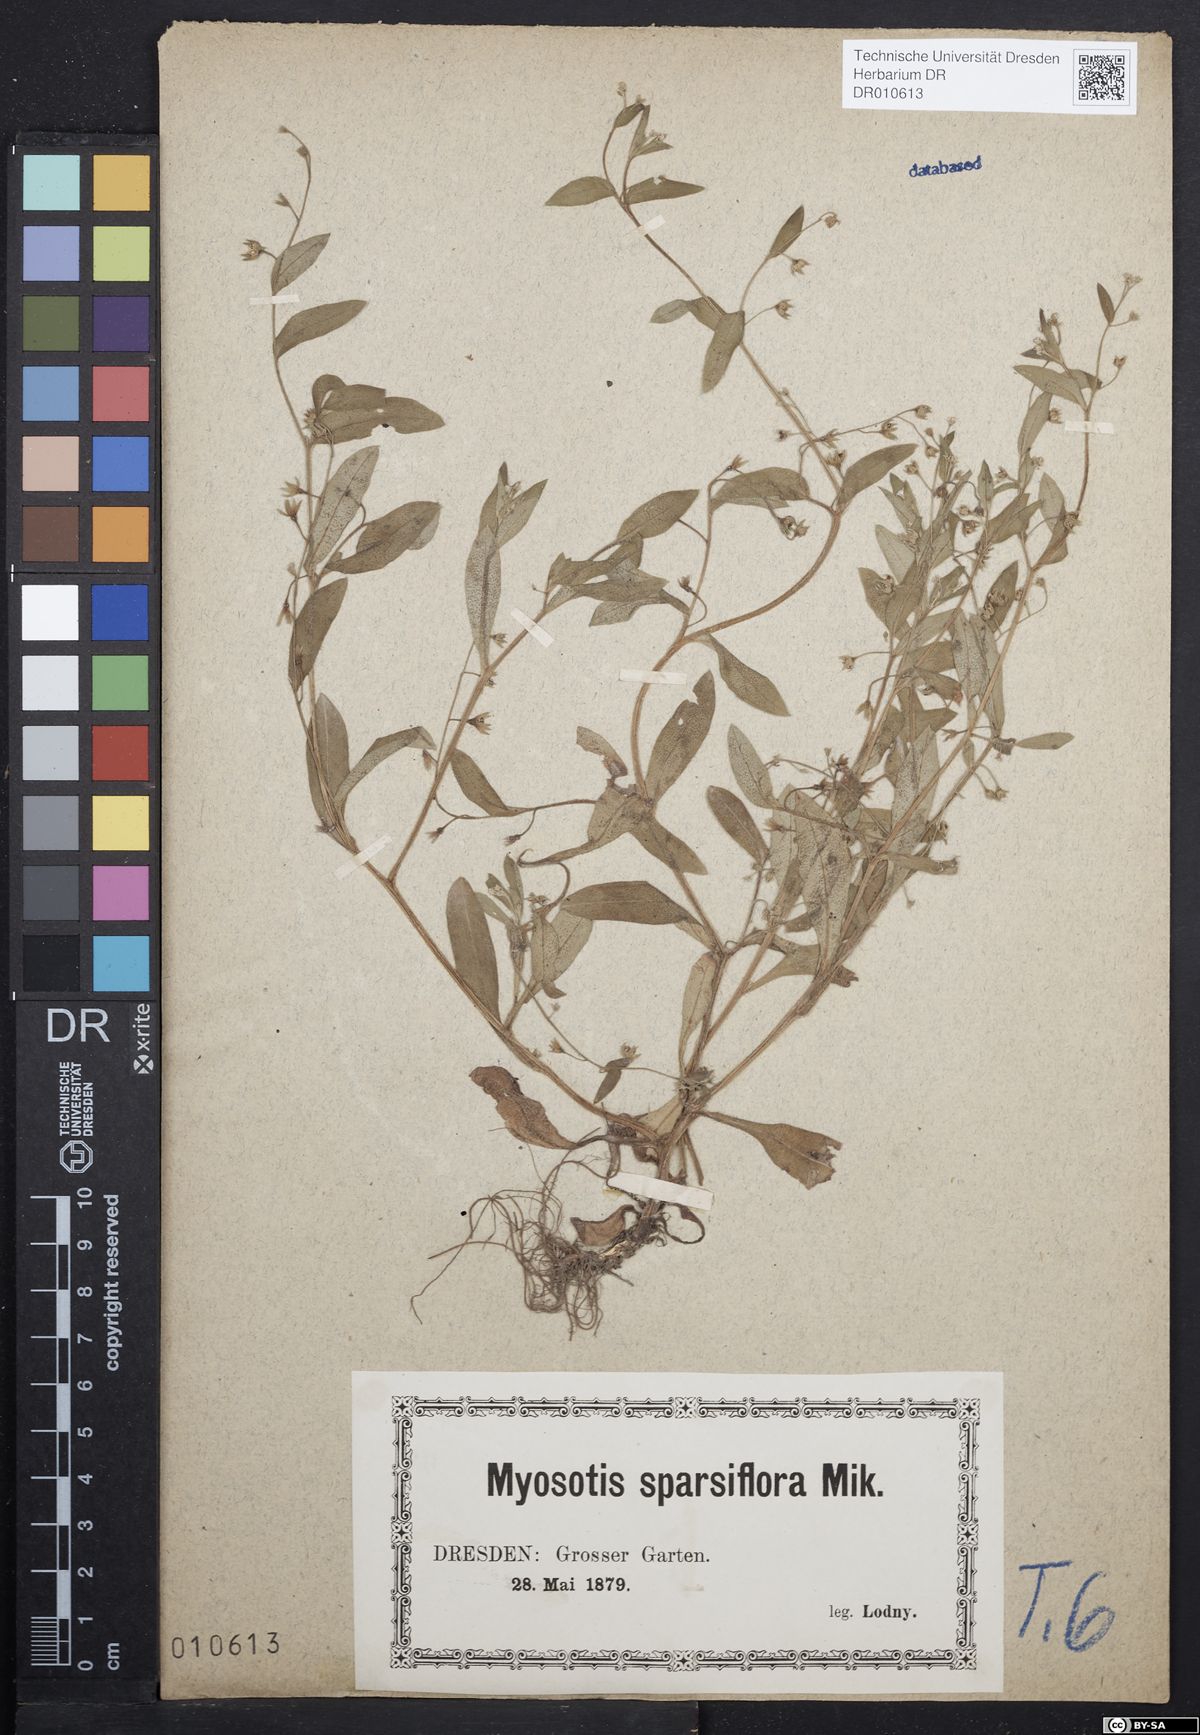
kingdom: Plantae
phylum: Tracheophyta
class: Magnoliopsida
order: Boraginales
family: Boraginaceae
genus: Myosotis
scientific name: Myosotis sparsiflora
